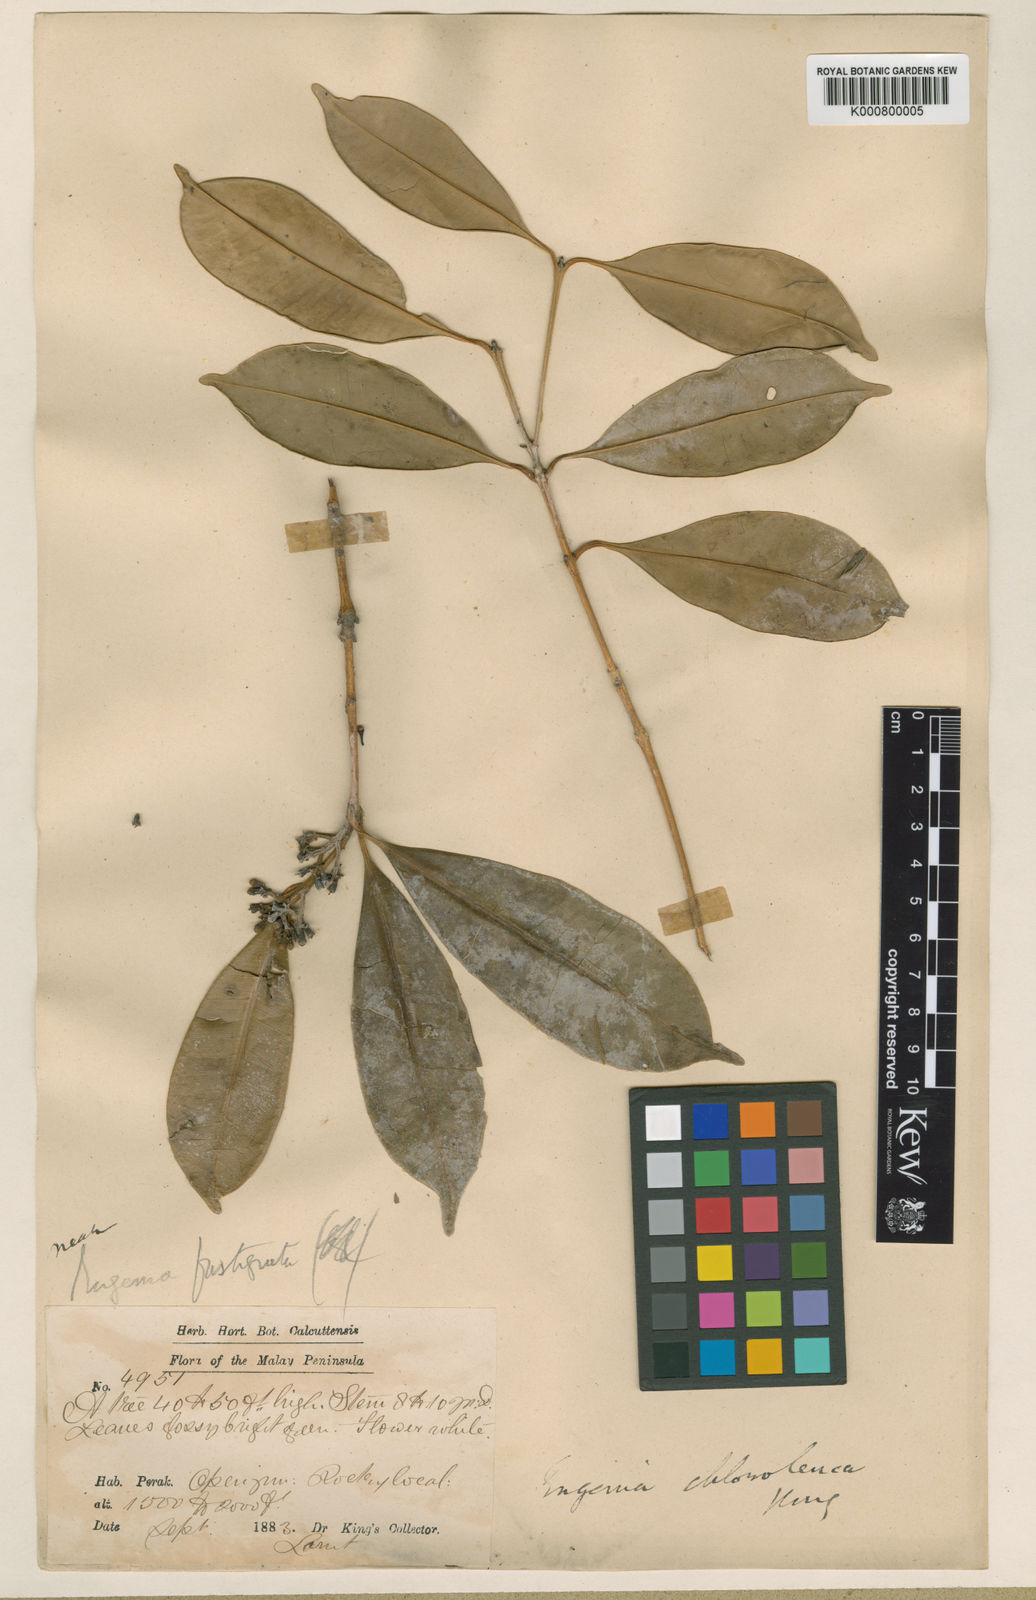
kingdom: Plantae
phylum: Tracheophyta
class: Magnoliopsida
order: Myrtales
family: Myrtaceae
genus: Syzygium
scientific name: Syzygium chloroleucum
